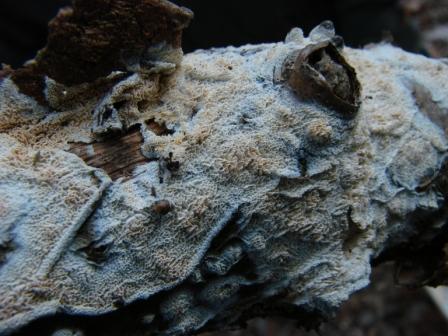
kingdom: Fungi
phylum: Basidiomycota
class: Agaricomycetes
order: Hymenochaetales
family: Schizoporaceae
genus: Xylodon
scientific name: Xylodon subtropicus
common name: labyrint-tandsvamp
